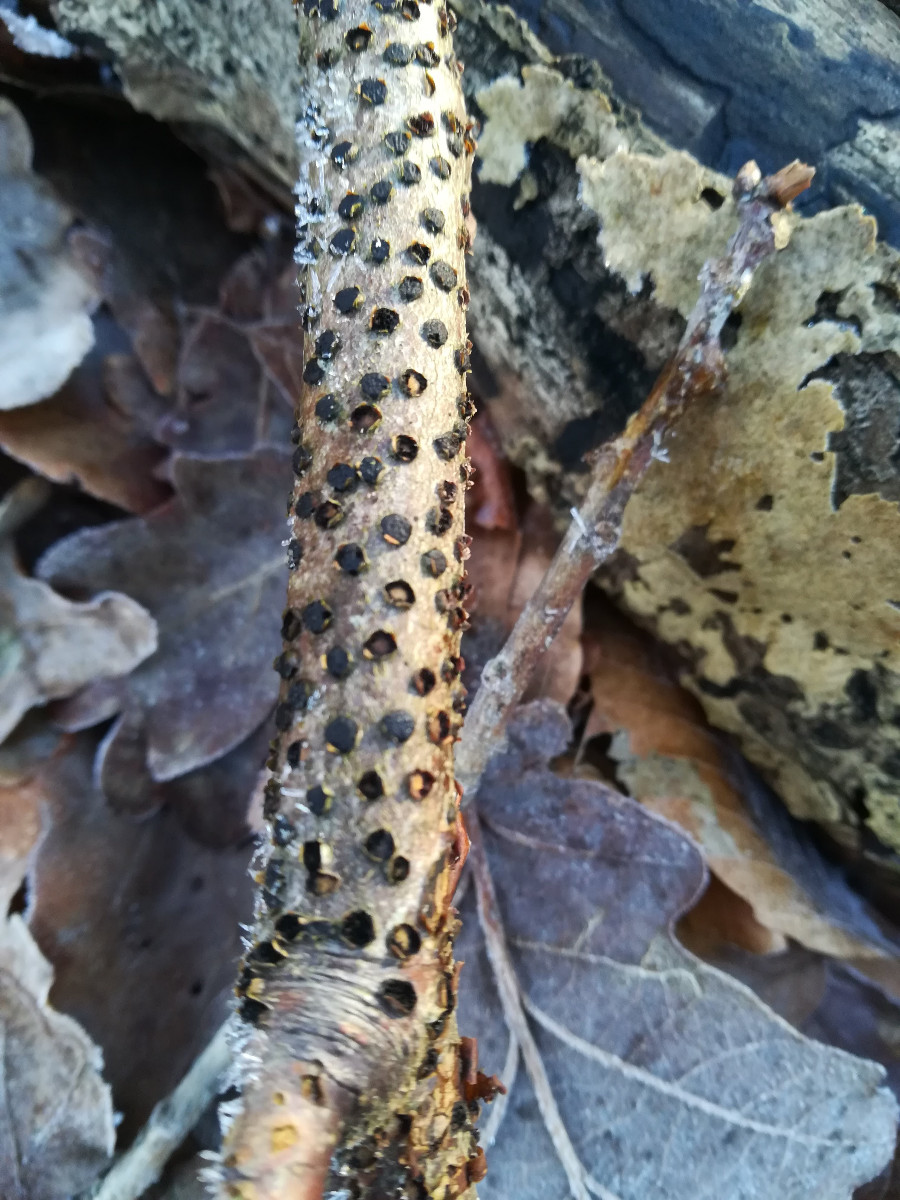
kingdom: Fungi
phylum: Ascomycota
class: Sordariomycetes
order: Xylariales
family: Diatrypaceae
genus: Diatrype
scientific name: Diatrype disciformis
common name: kant-kulskorpe
